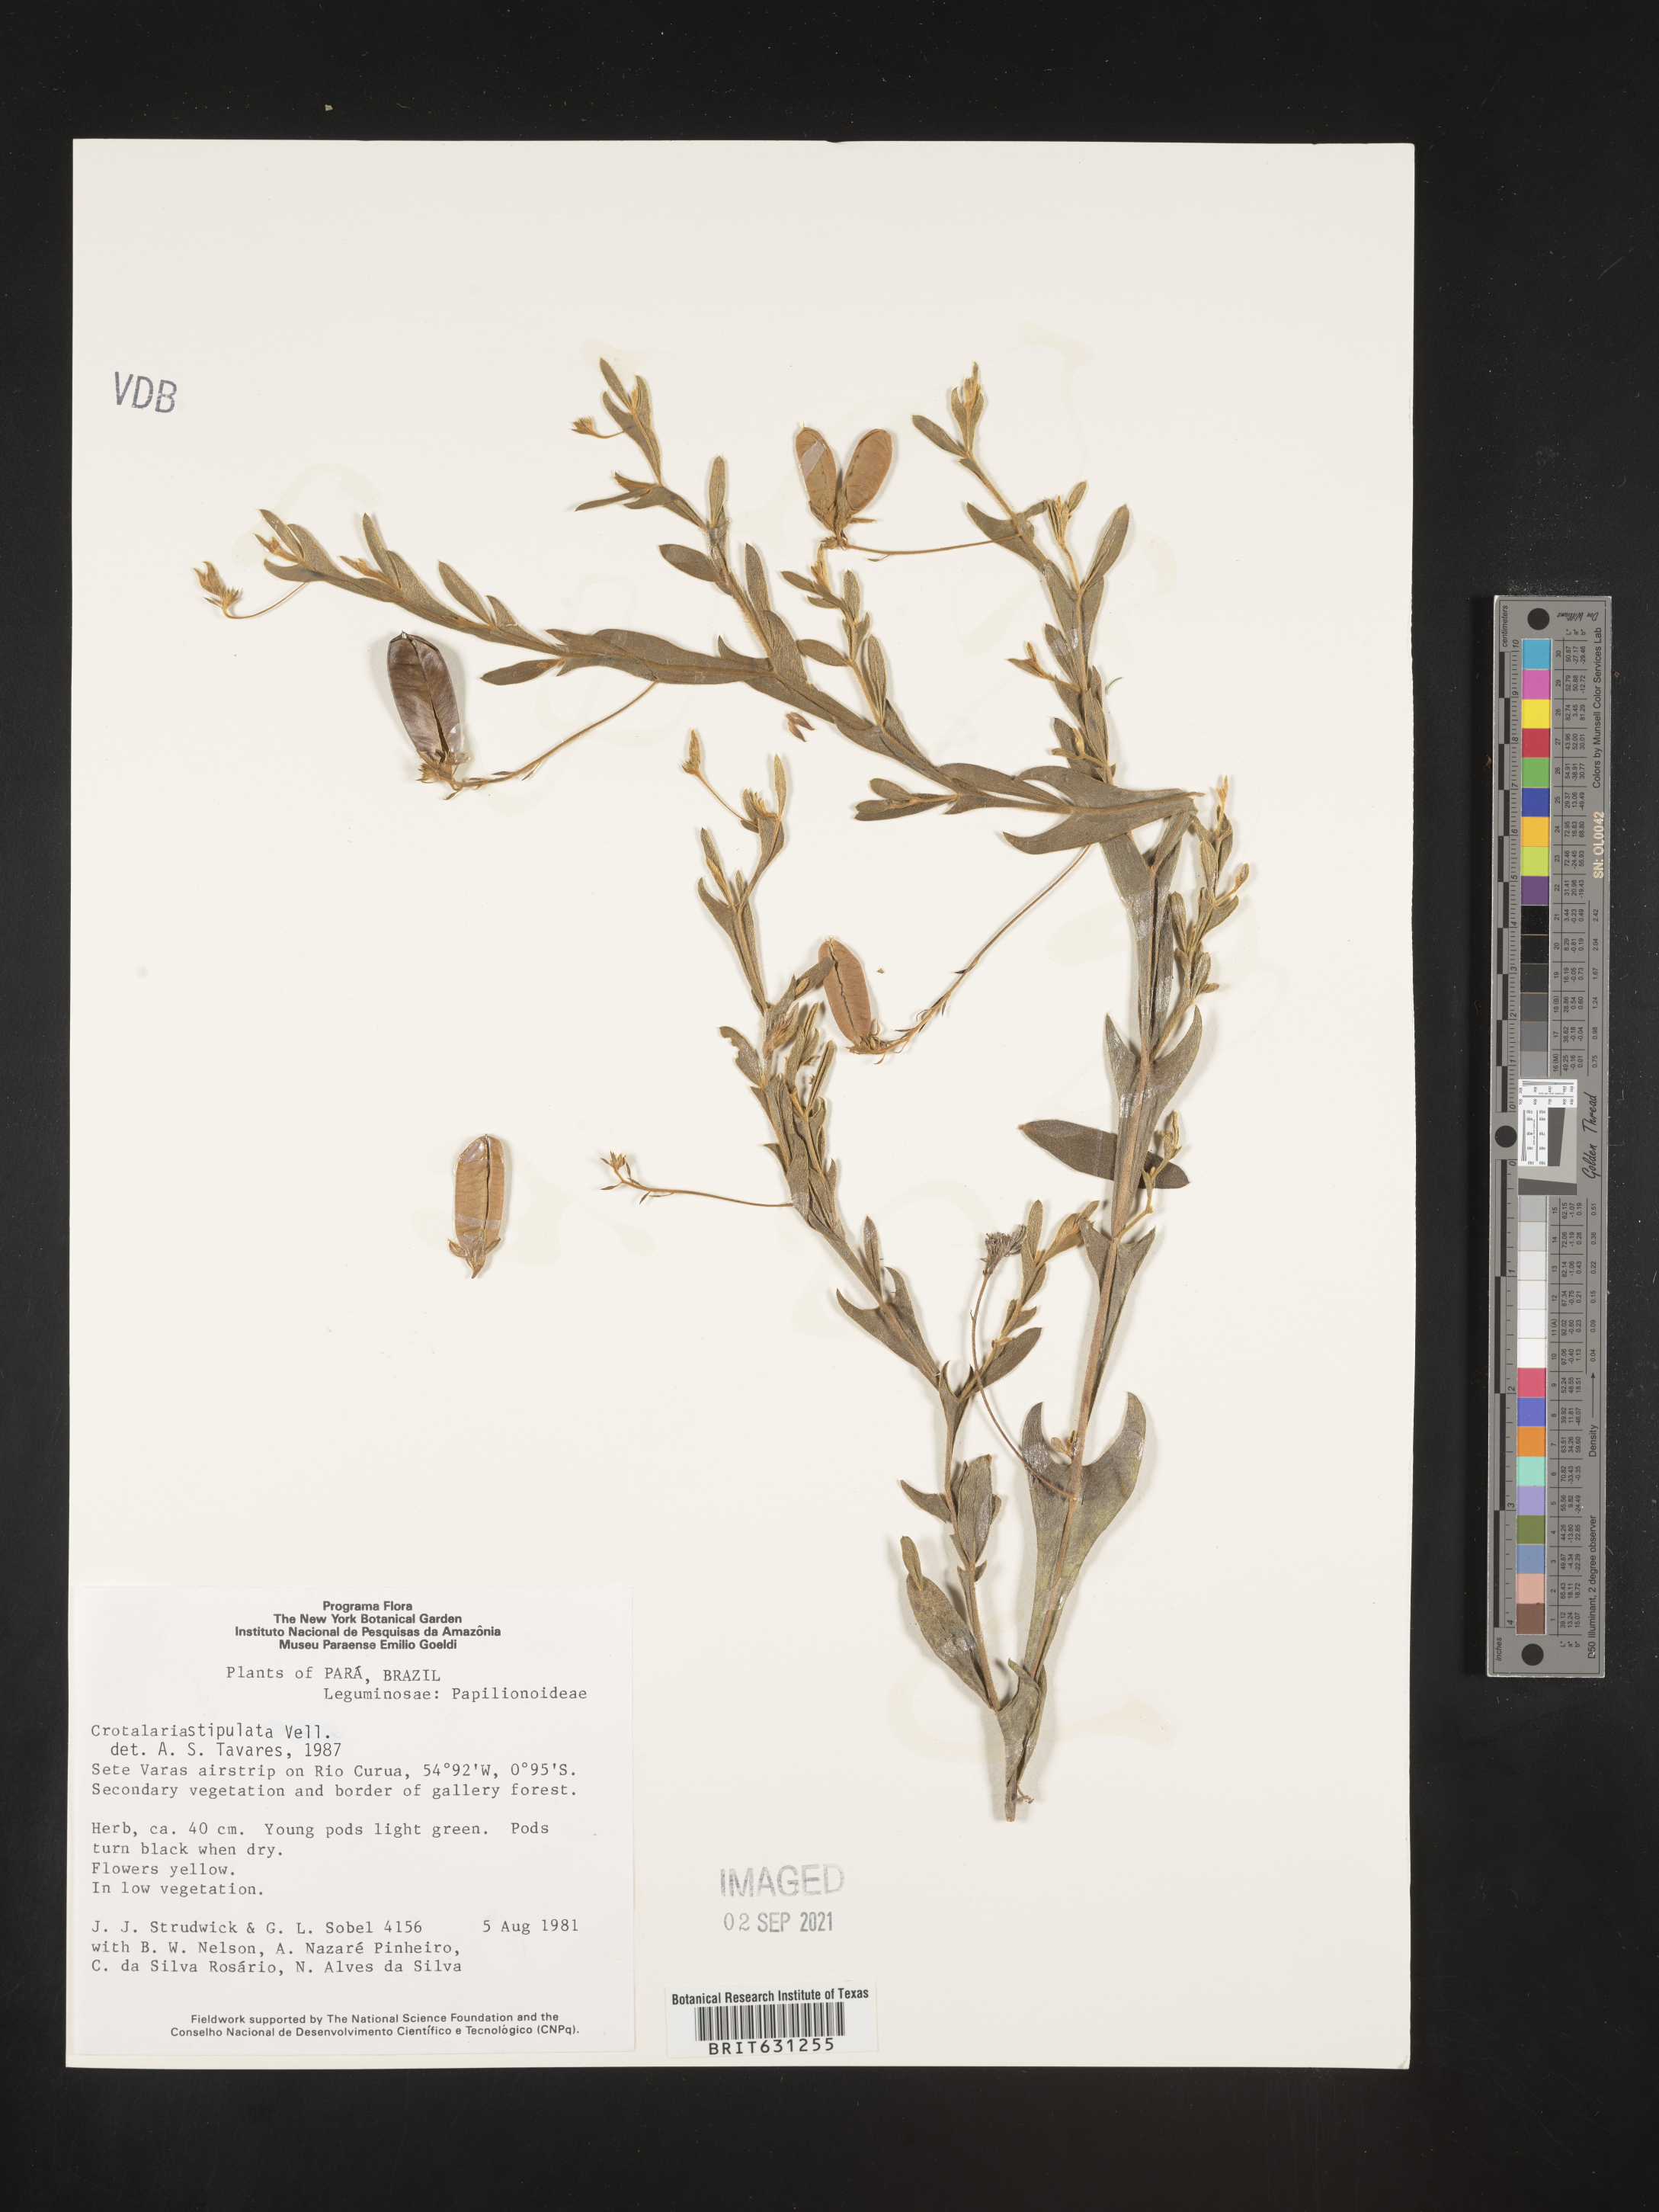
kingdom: Plantae
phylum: Tracheophyta
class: Magnoliopsida
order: Fabales
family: Fabaceae
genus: Crotalaria
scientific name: Crotalaria micans
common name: Caracas rattlebox
